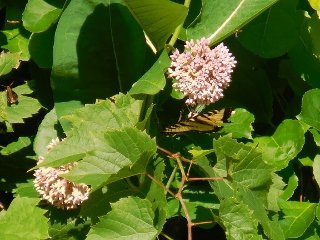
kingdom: Animalia
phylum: Arthropoda
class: Insecta
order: Lepidoptera
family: Hesperiidae
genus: Lon
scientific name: Lon hobomok
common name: Hobomok Skipper
